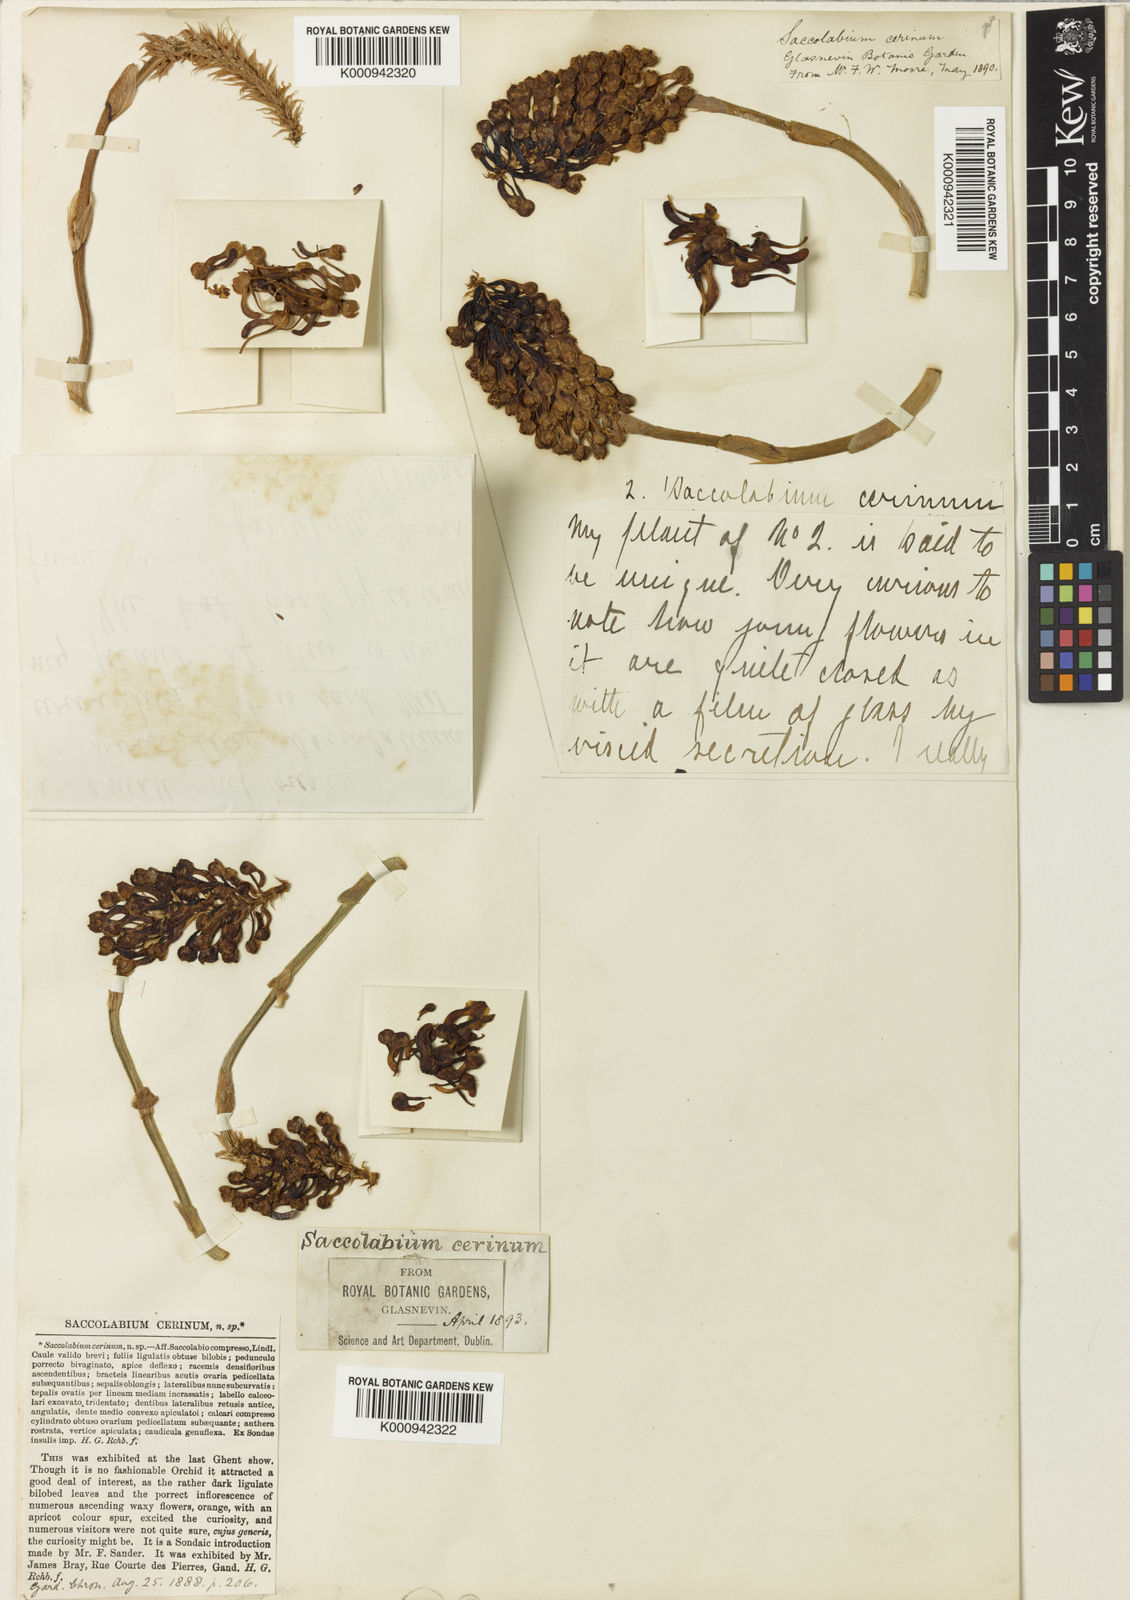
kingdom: Plantae
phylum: Tracheophyta
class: Liliopsida
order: Asparagales
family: Orchidaceae
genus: Robiquetia
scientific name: Robiquetia cerina
